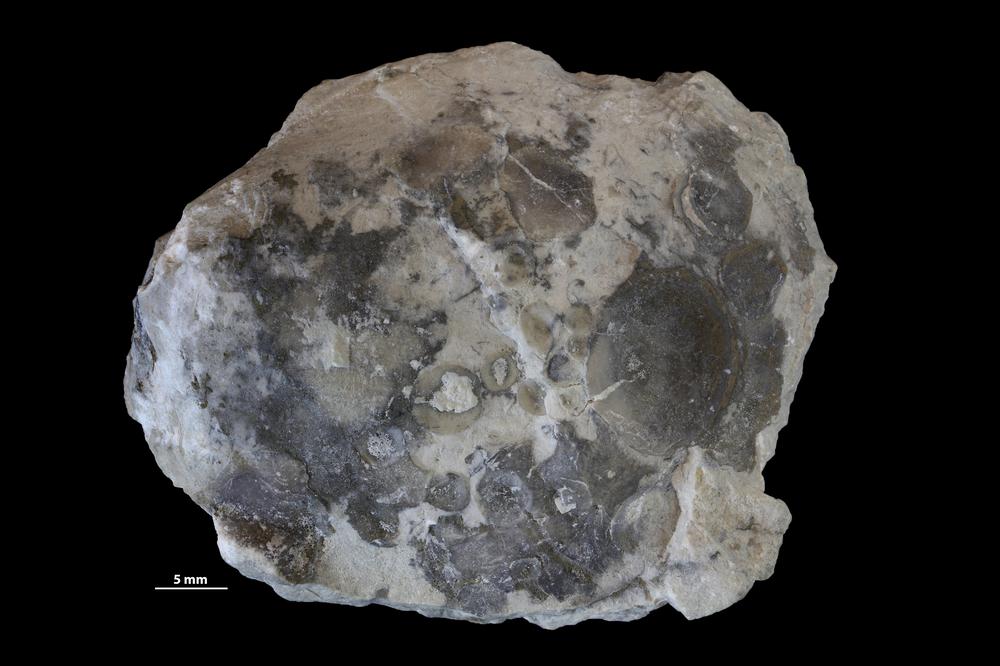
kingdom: Animalia
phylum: Brachiopoda
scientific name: Brachiopoda
